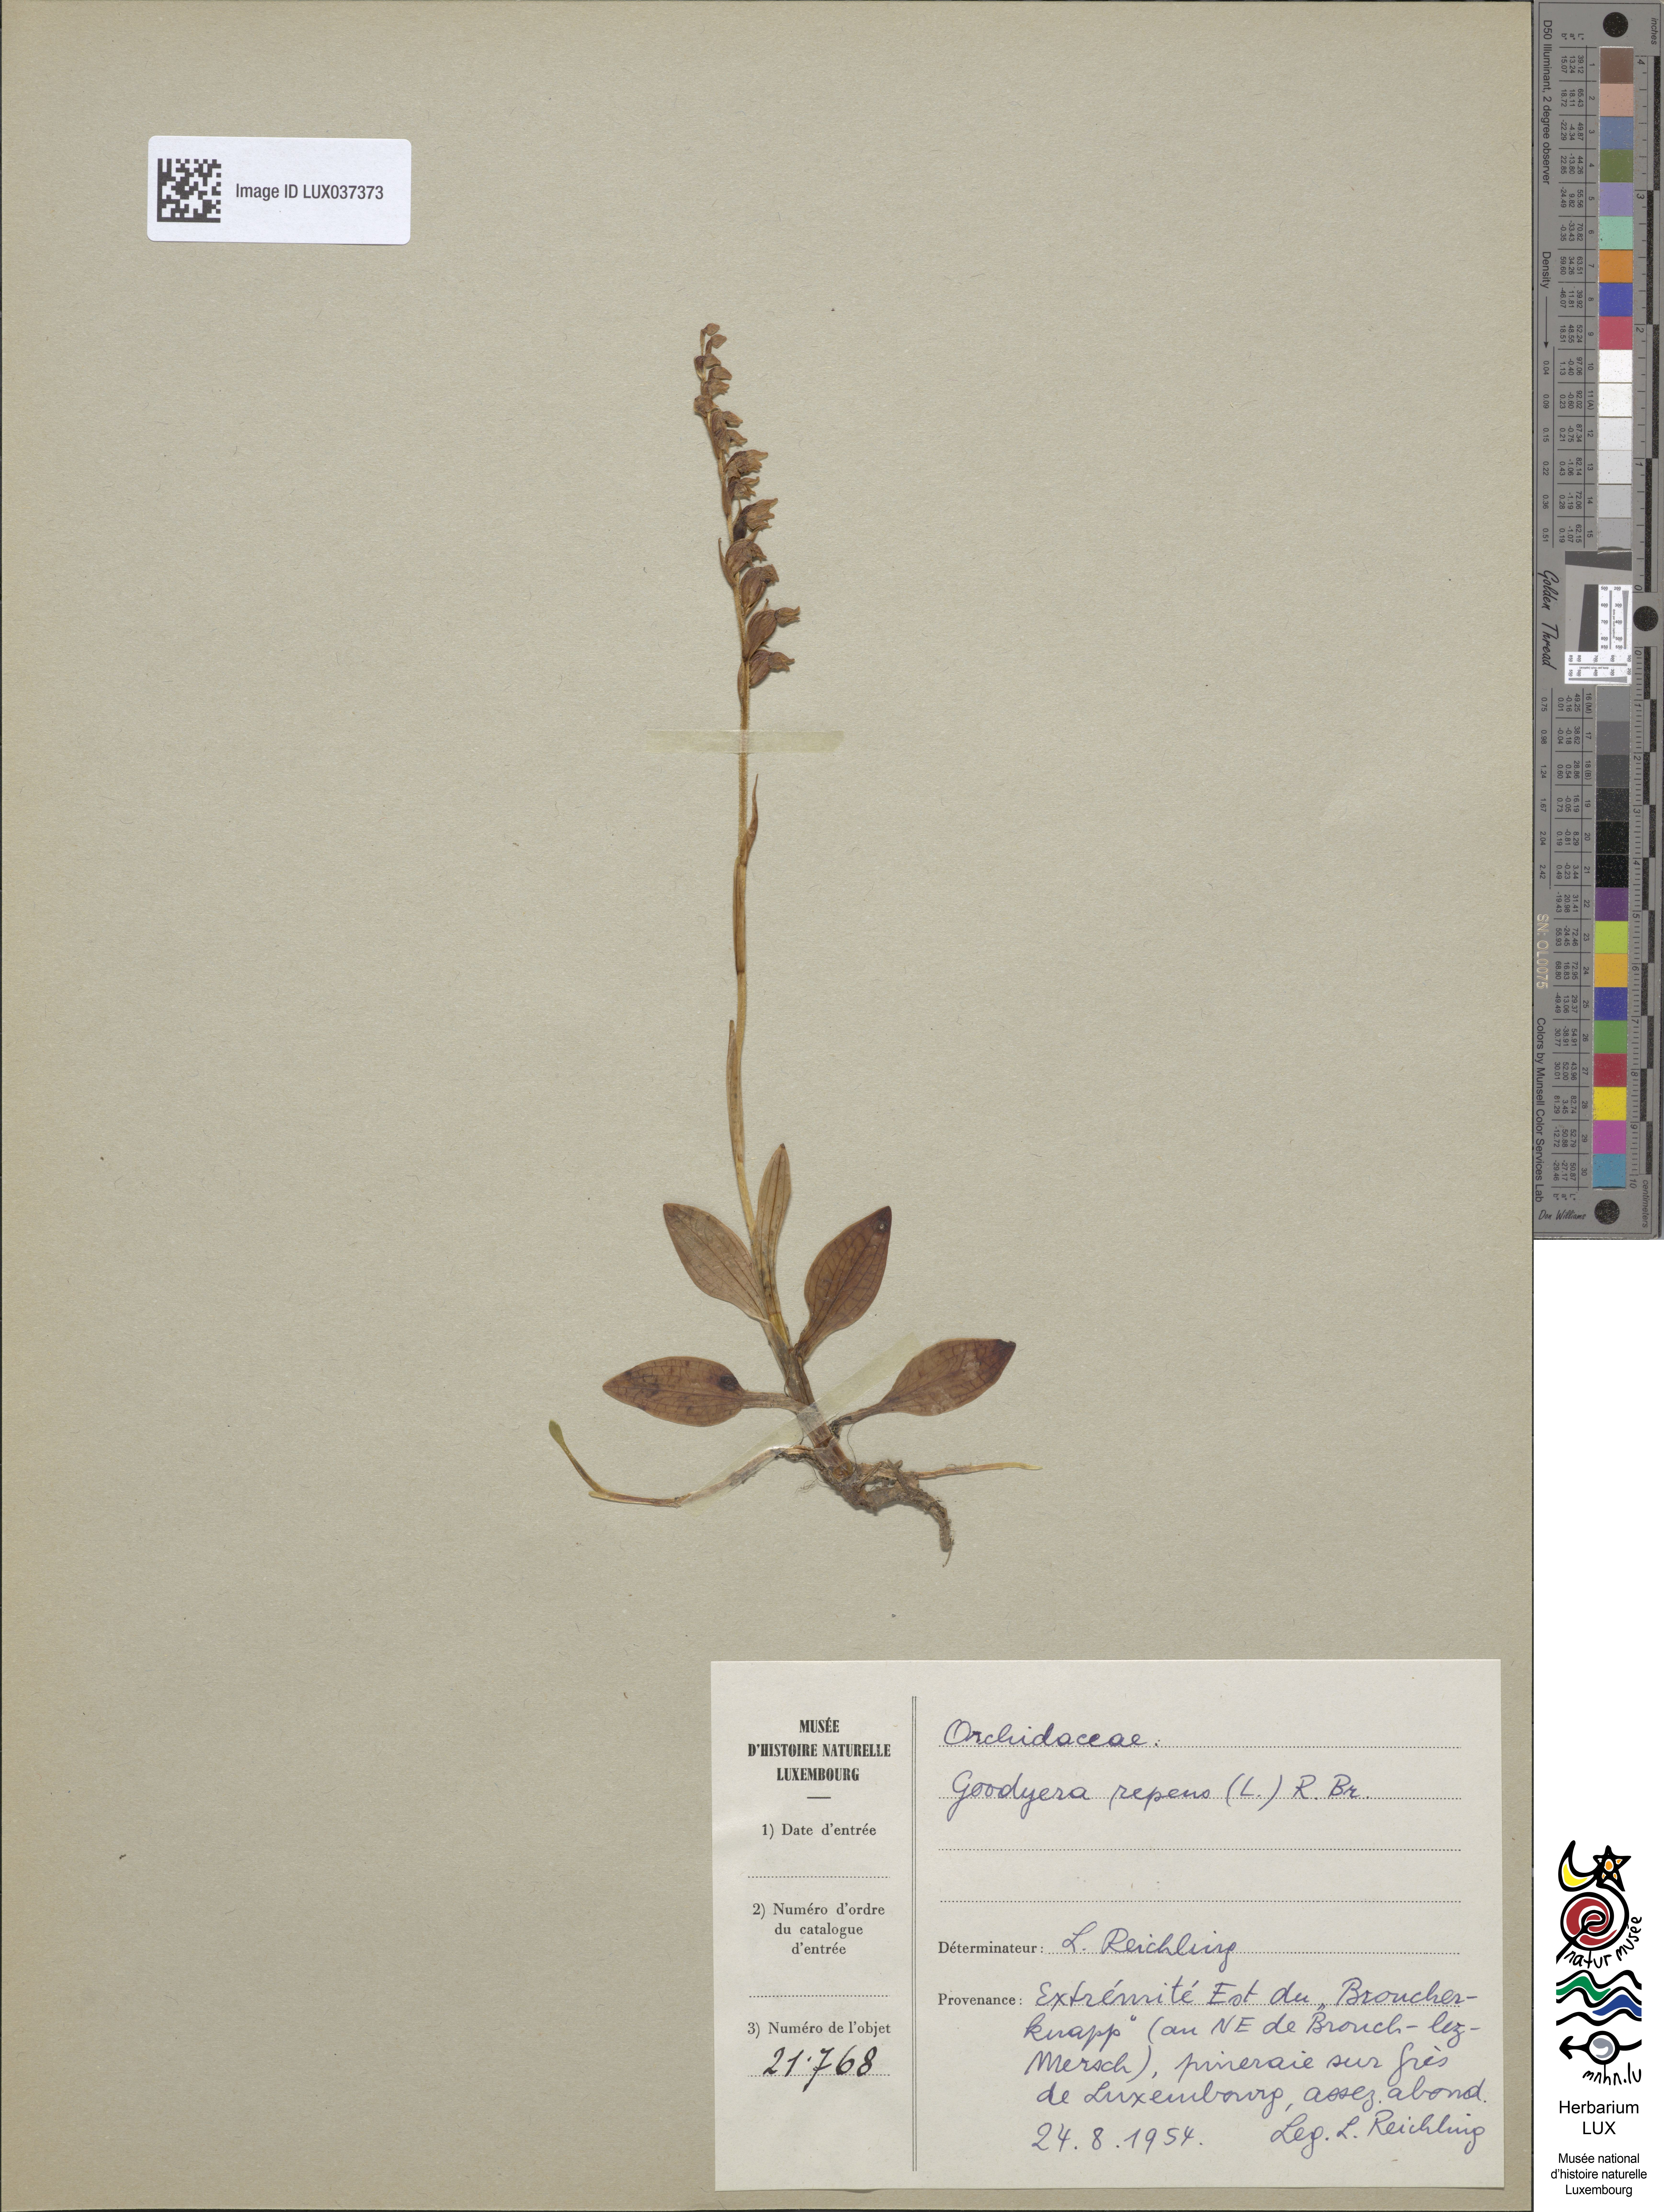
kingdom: Plantae
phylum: Tracheophyta
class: Liliopsida
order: Asparagales
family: Orchidaceae
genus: Goodyera
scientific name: Goodyera repens
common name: Creeping lady's-tresses
